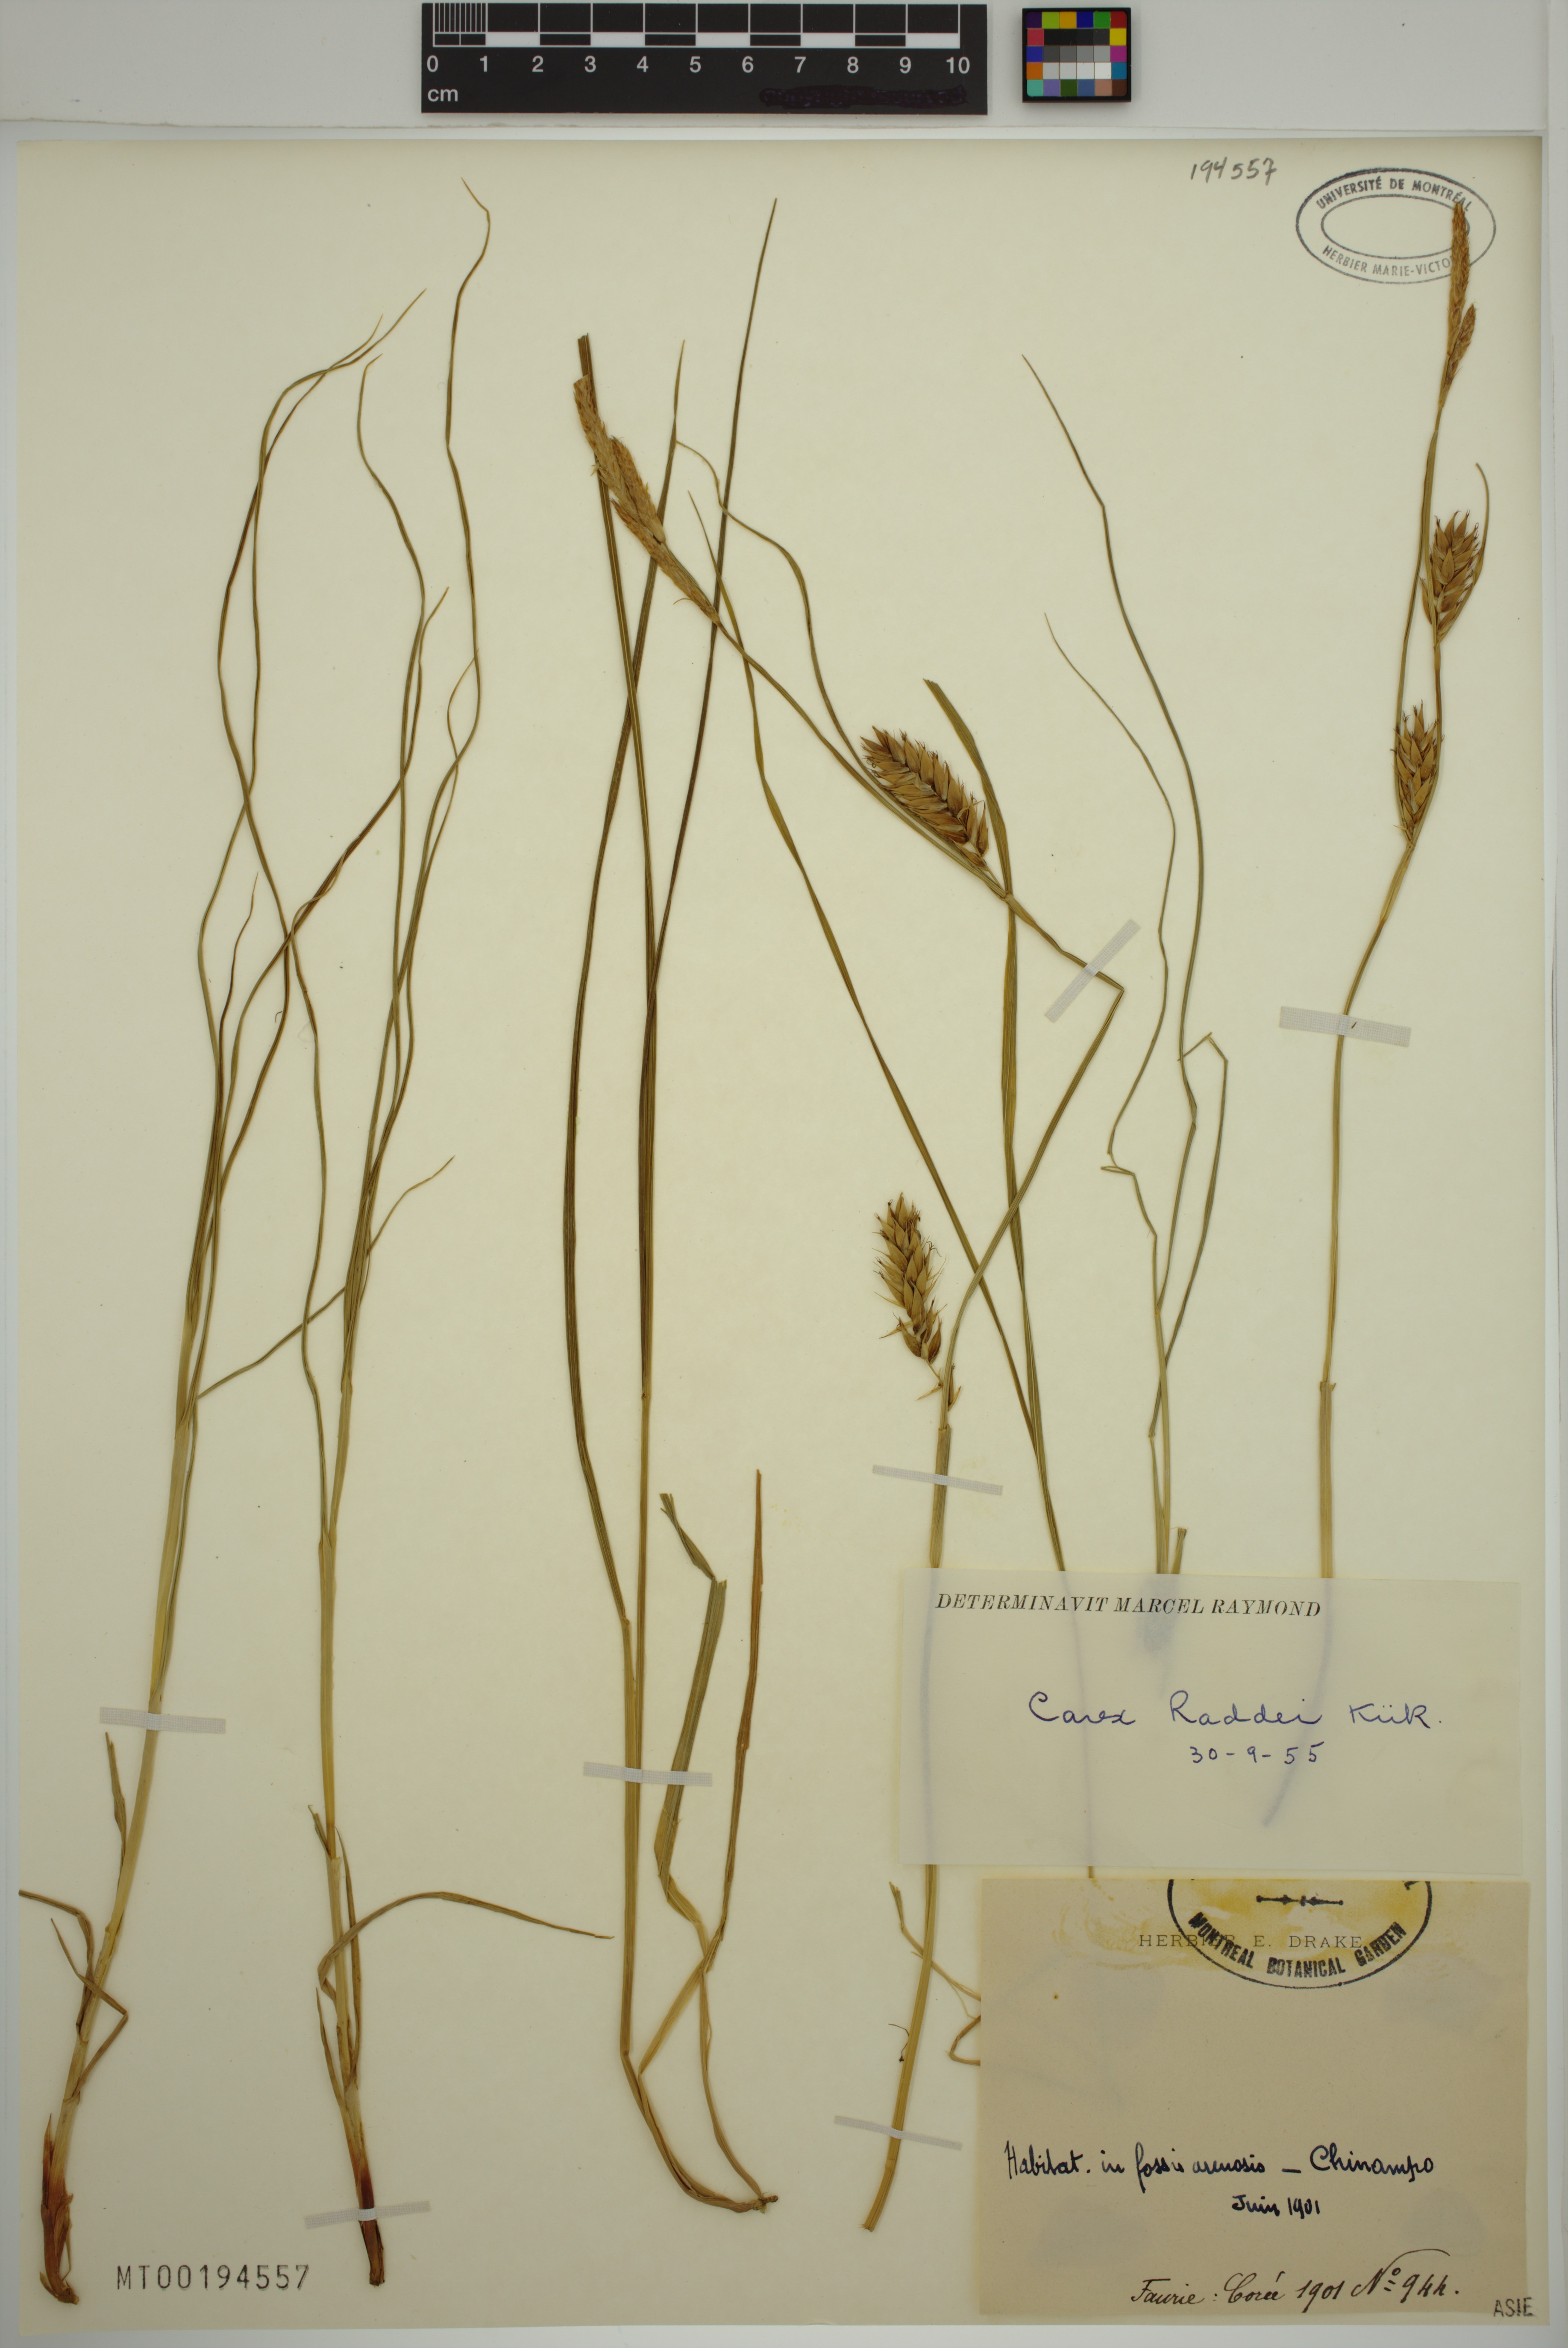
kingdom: Plantae
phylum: Tracheophyta
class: Liliopsida
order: Poales
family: Cyperaceae
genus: Carex
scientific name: Carex raddei
